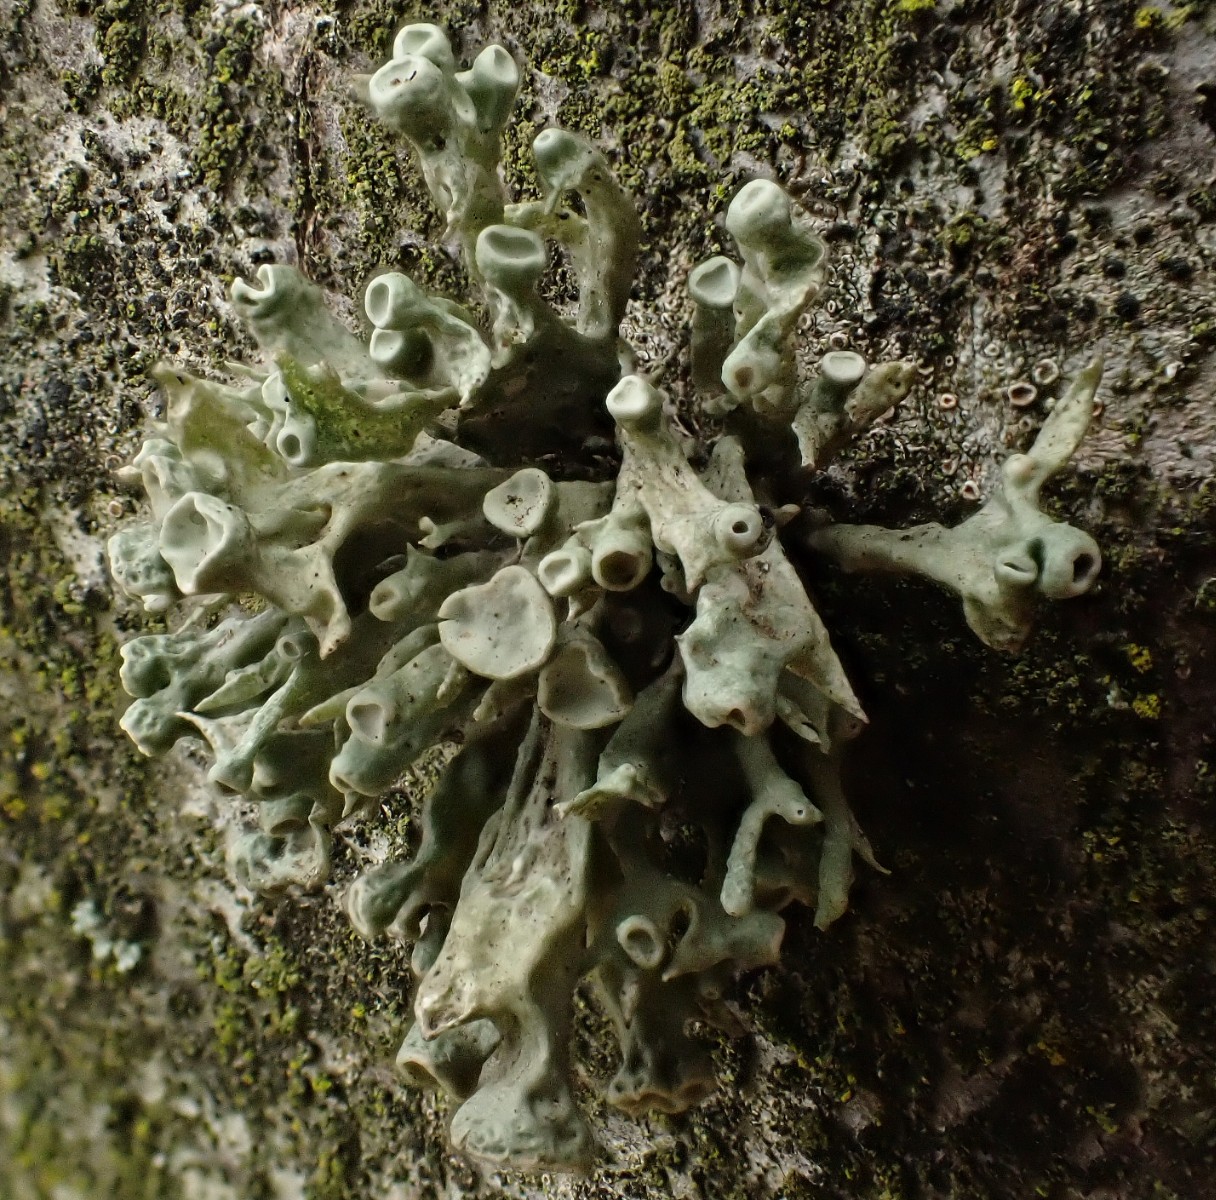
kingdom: Fungi
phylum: Ascomycota
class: Lecanoromycetes
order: Lecanorales
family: Ramalinaceae
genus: Ramalina
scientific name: Ramalina fastigiata
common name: tue-grenlav
